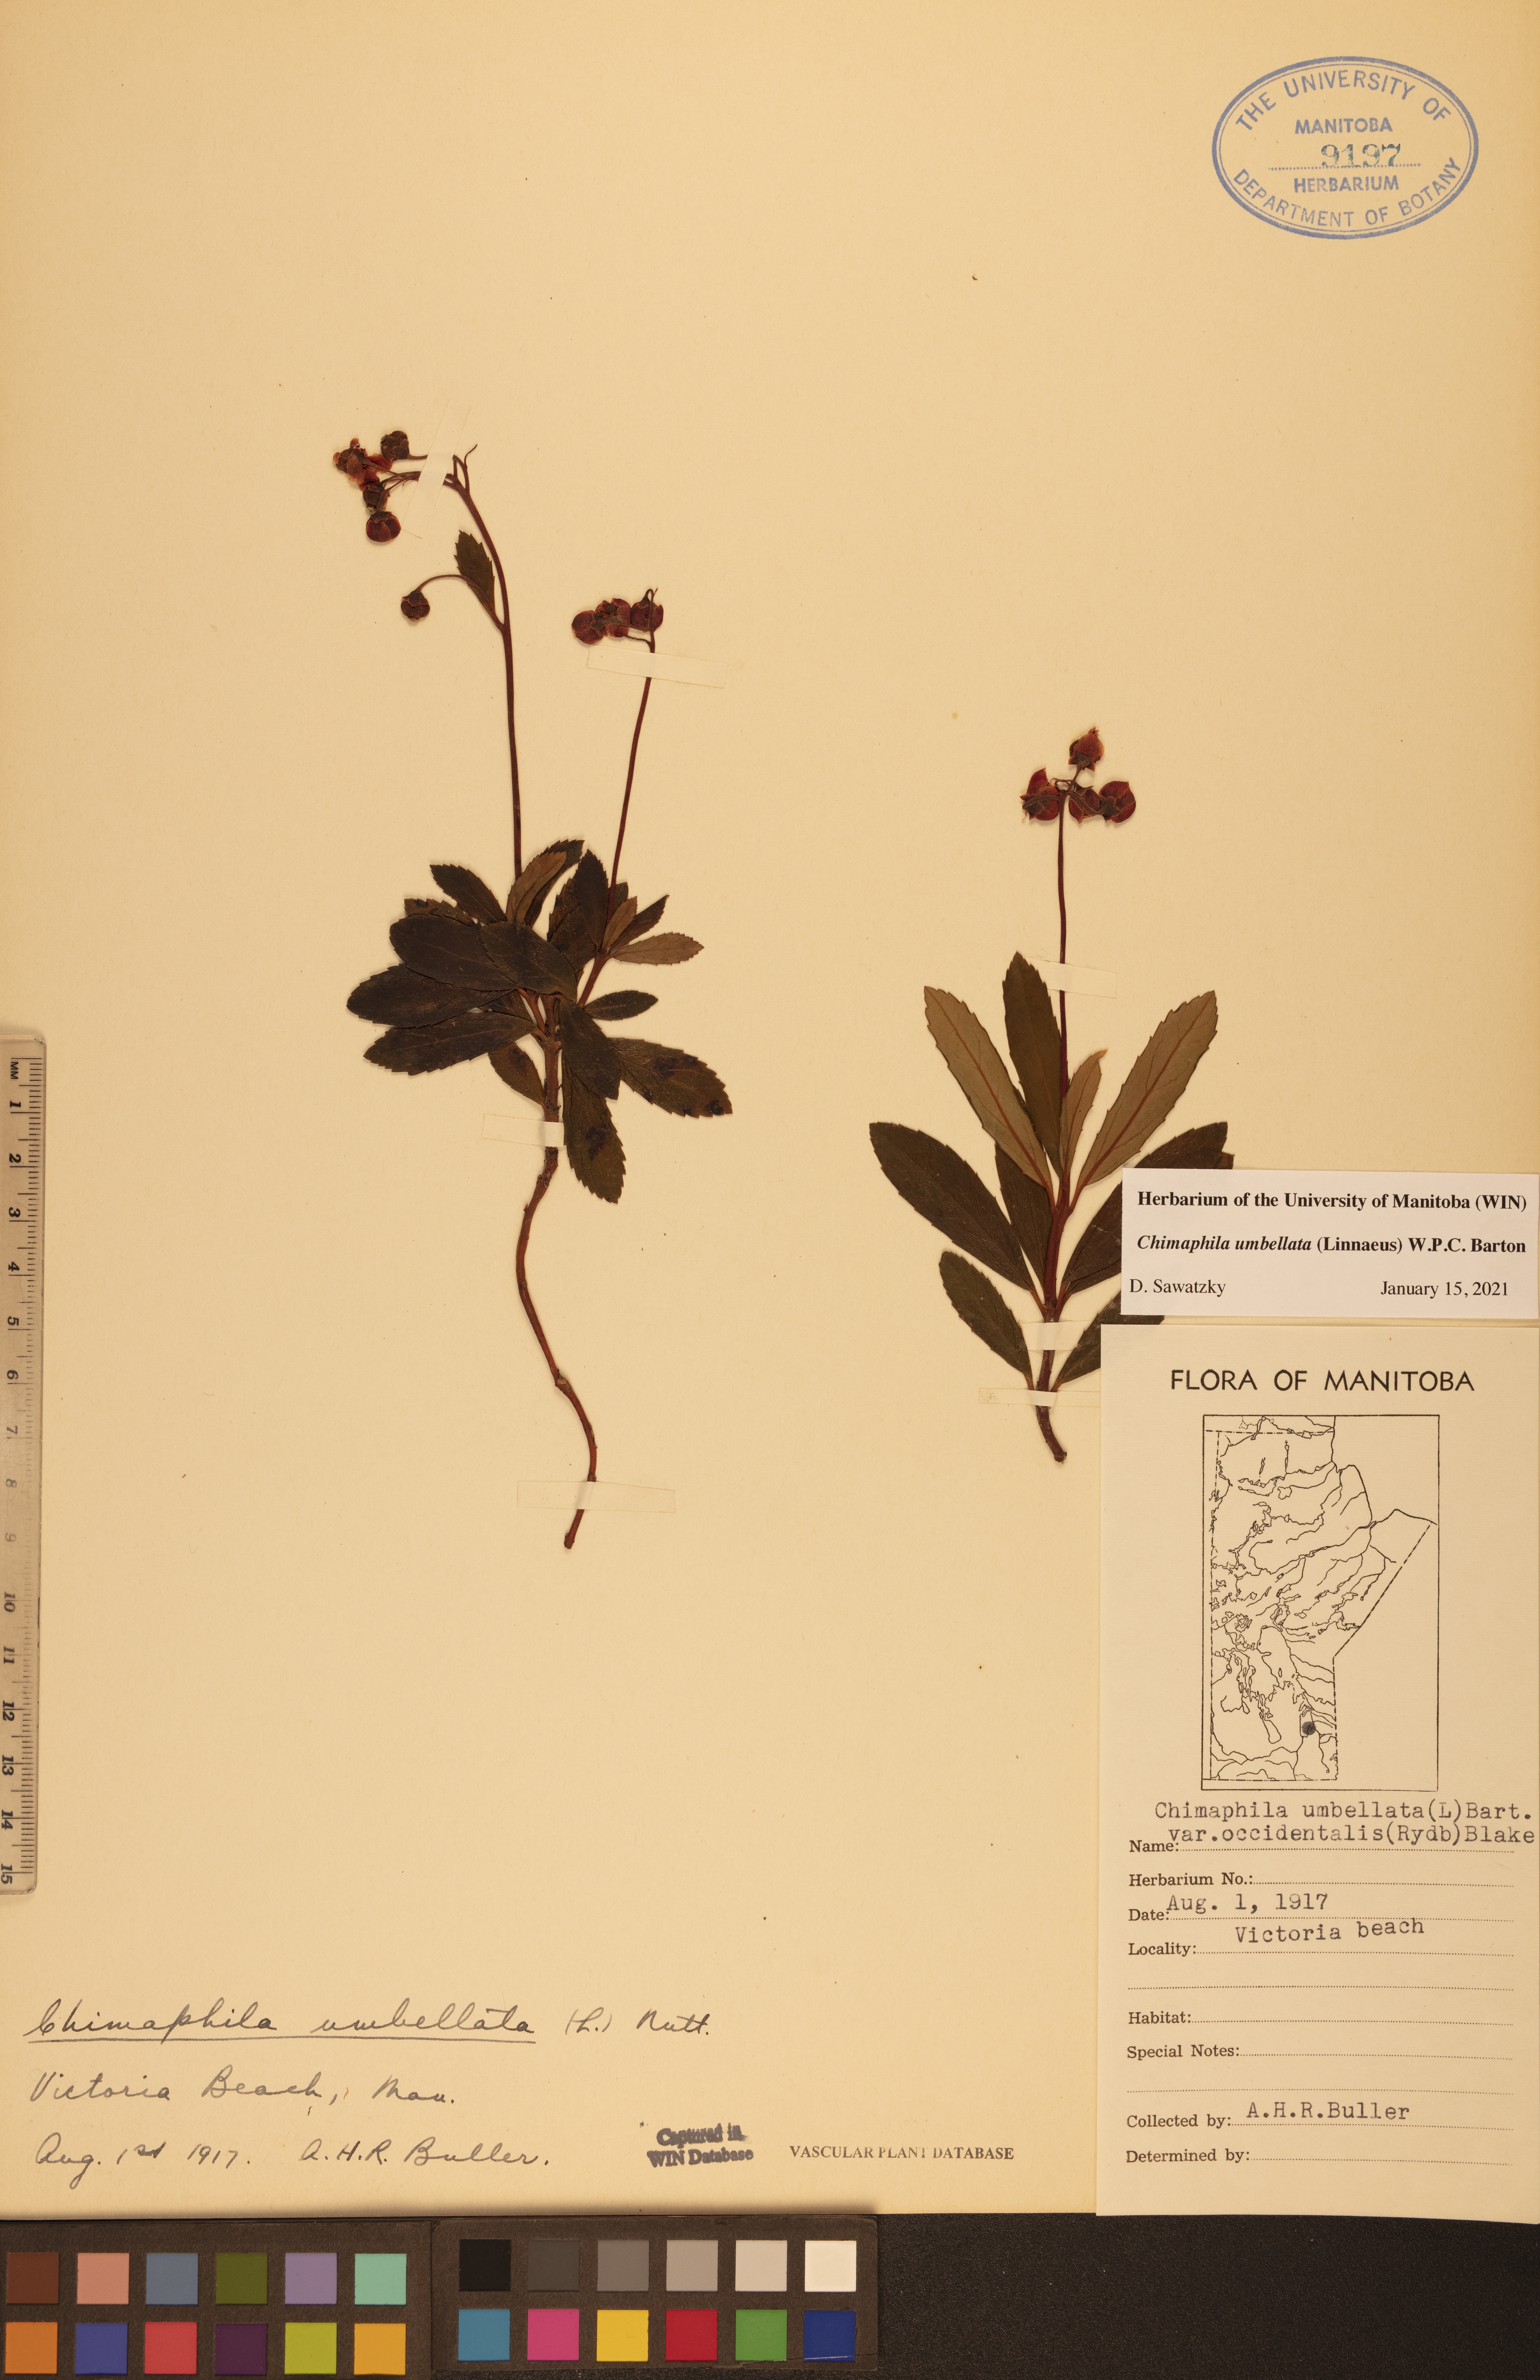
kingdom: Plantae
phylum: Tracheophyta
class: Magnoliopsida
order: Ericales
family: Ericaceae
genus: Chimaphila
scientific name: Chimaphila umbellata
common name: Pipsissewa
